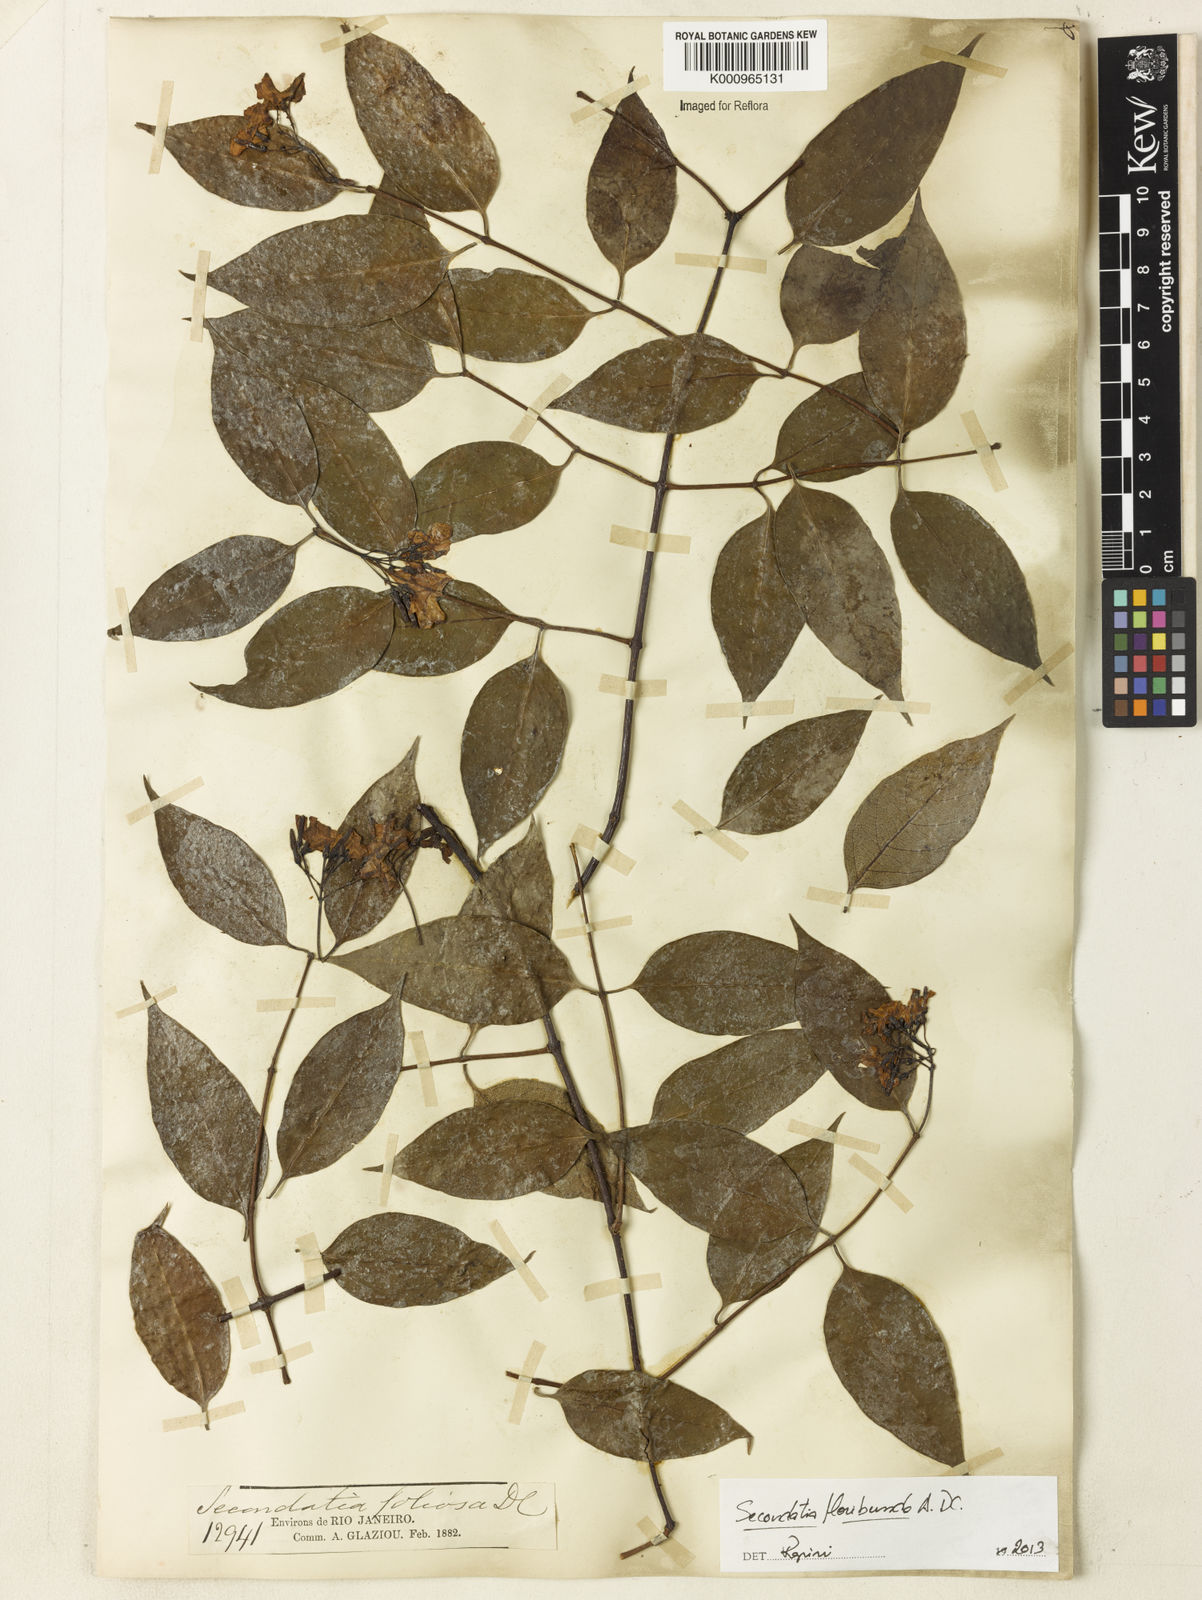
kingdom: Plantae
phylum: Tracheophyta
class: Magnoliopsida
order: Gentianales
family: Apocynaceae
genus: Secondatia
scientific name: Secondatia floribunda
